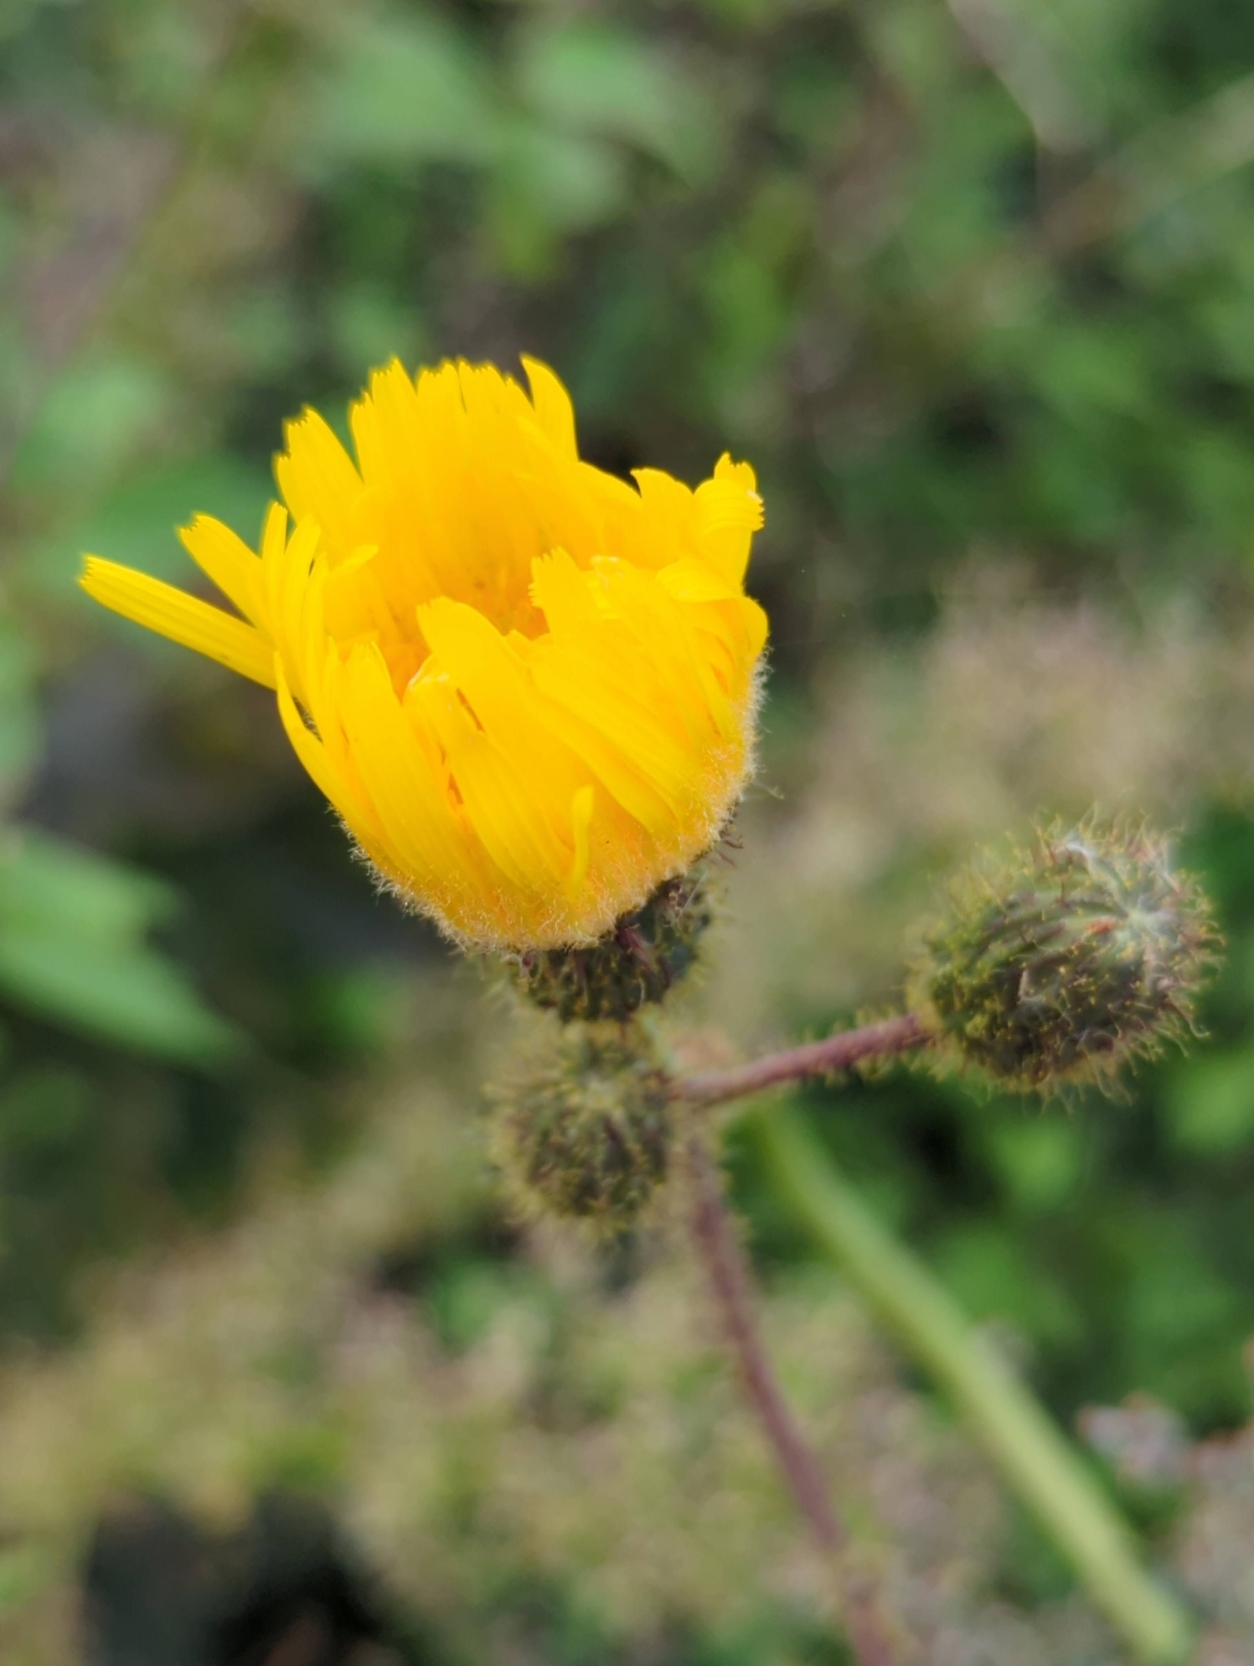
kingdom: Plantae
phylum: Tracheophyta
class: Magnoliopsida
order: Asterales
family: Asteraceae
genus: Sonchus
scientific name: Sonchus arvensis
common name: Ager-svinemælk
